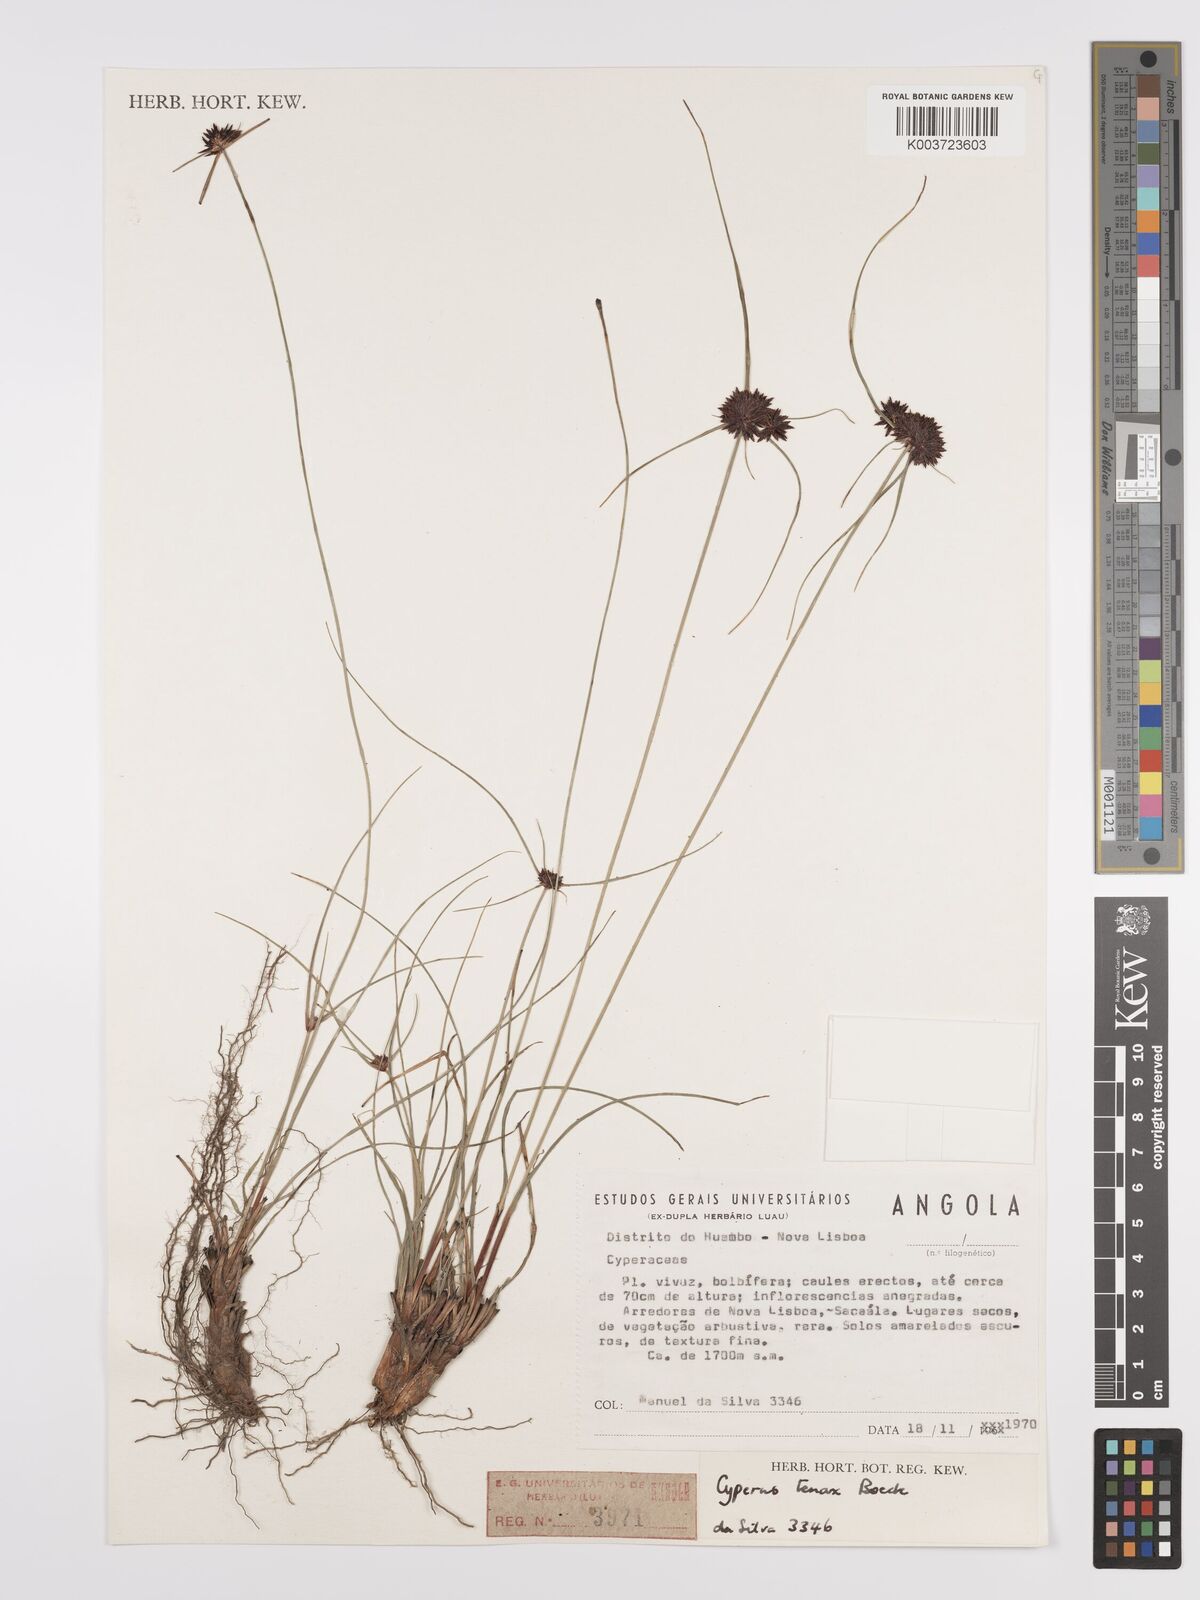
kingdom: Plantae
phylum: Tracheophyta
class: Liliopsida
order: Poales
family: Cyperaceae
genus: Cyperus
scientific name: Cyperus tenax
